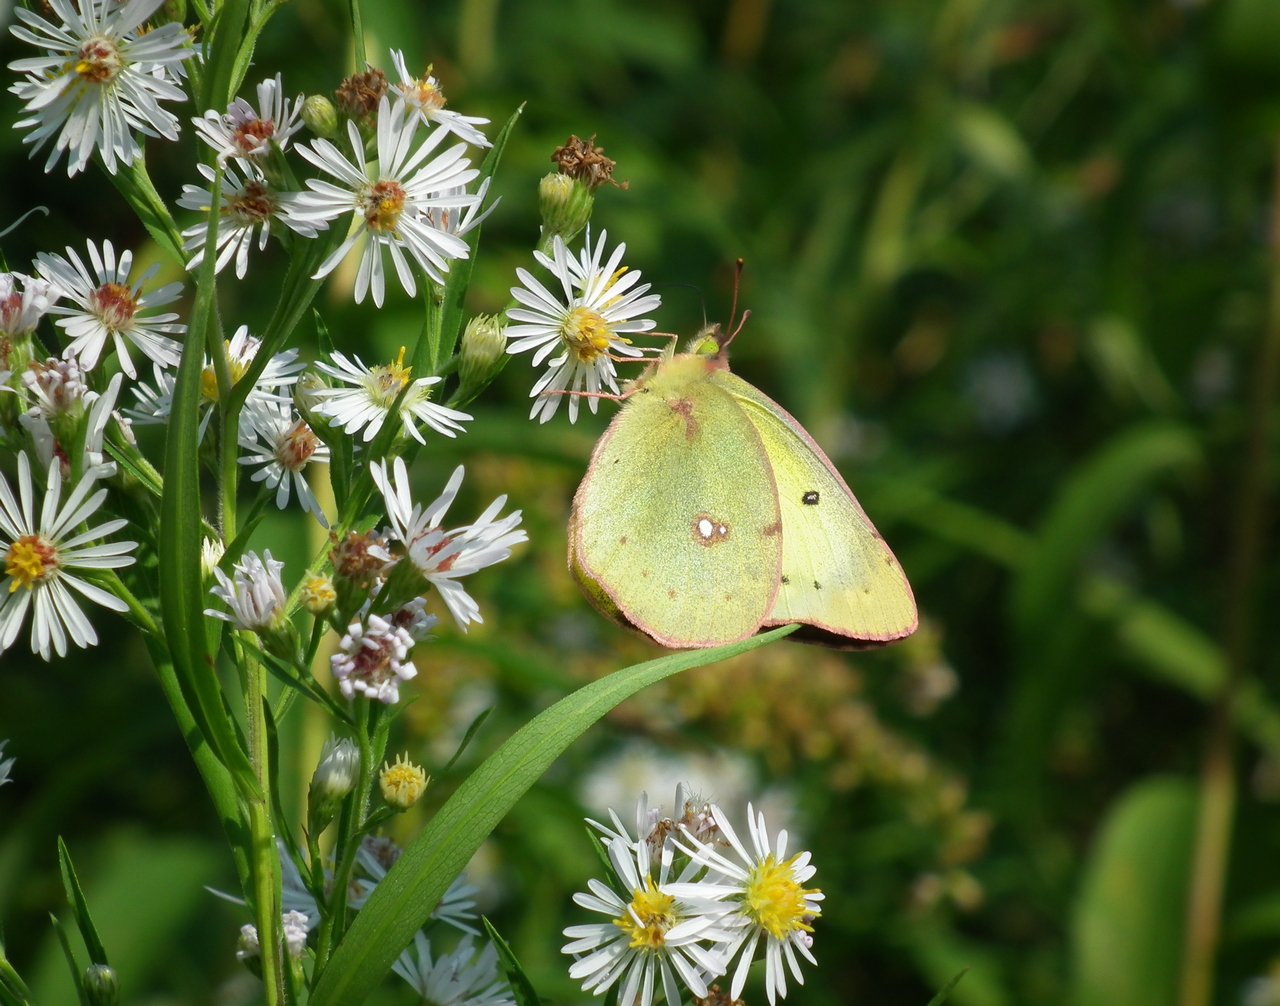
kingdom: Animalia
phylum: Arthropoda
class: Insecta
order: Lepidoptera
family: Pieridae
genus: Colias
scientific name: Colias philodice
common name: Clouded Sulphur
